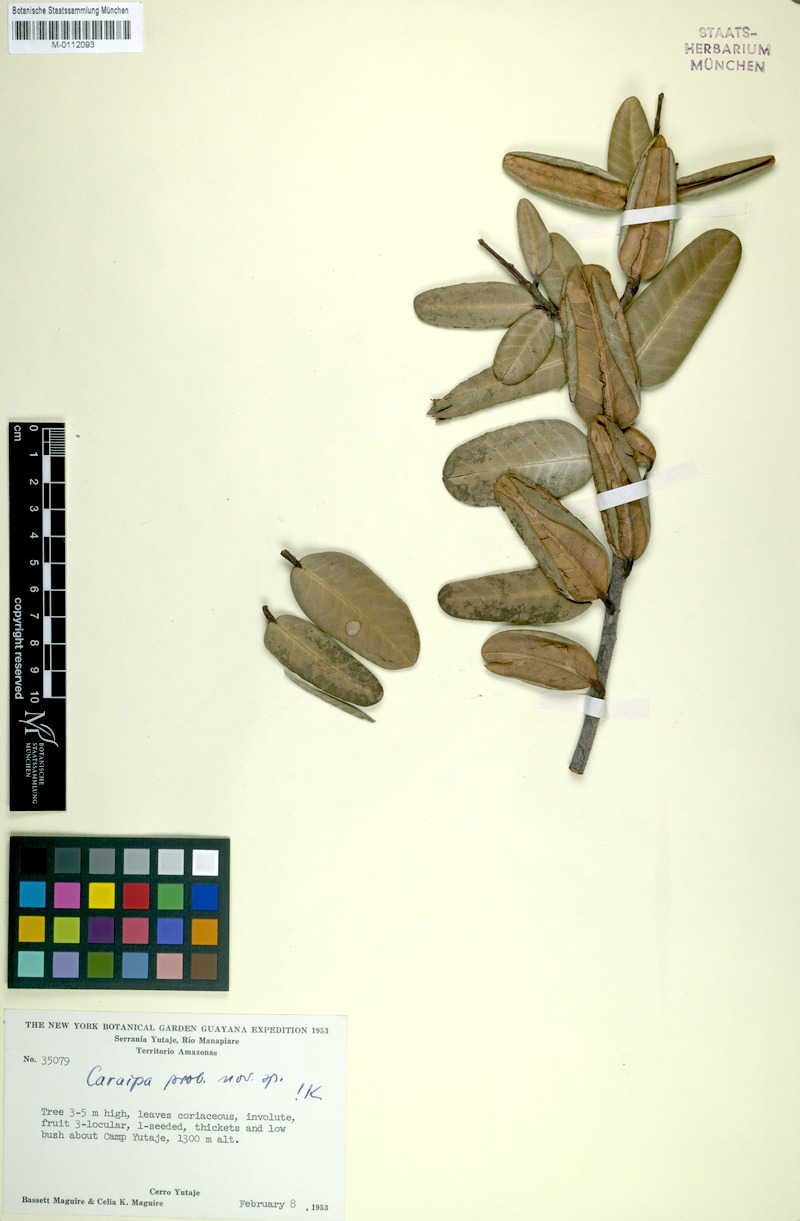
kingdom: Plantae
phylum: Tracheophyta
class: Magnoliopsida
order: Malpighiales
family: Calophyllaceae
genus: Caraipa
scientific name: Caraipa aracaensis
